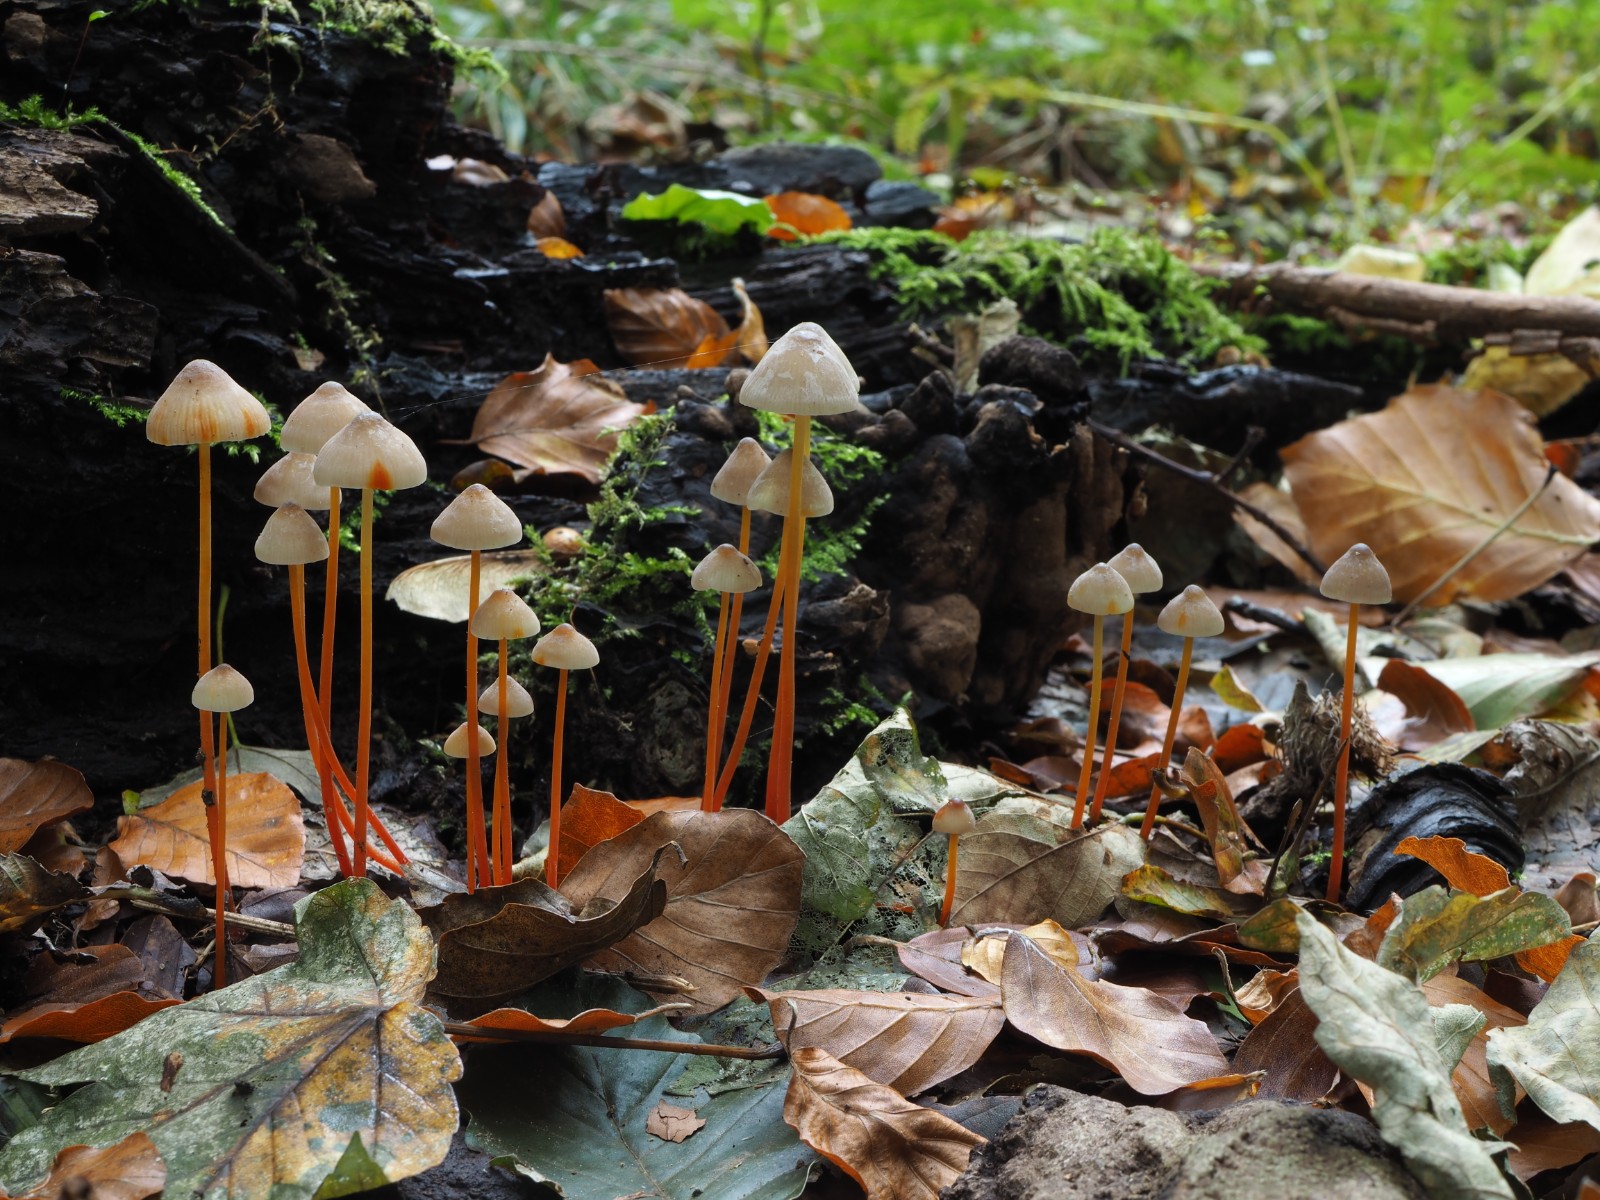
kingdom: Fungi
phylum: Basidiomycota
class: Agaricomycetes
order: Agaricales
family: Mycenaceae
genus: Mycena
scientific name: Mycena crocata
